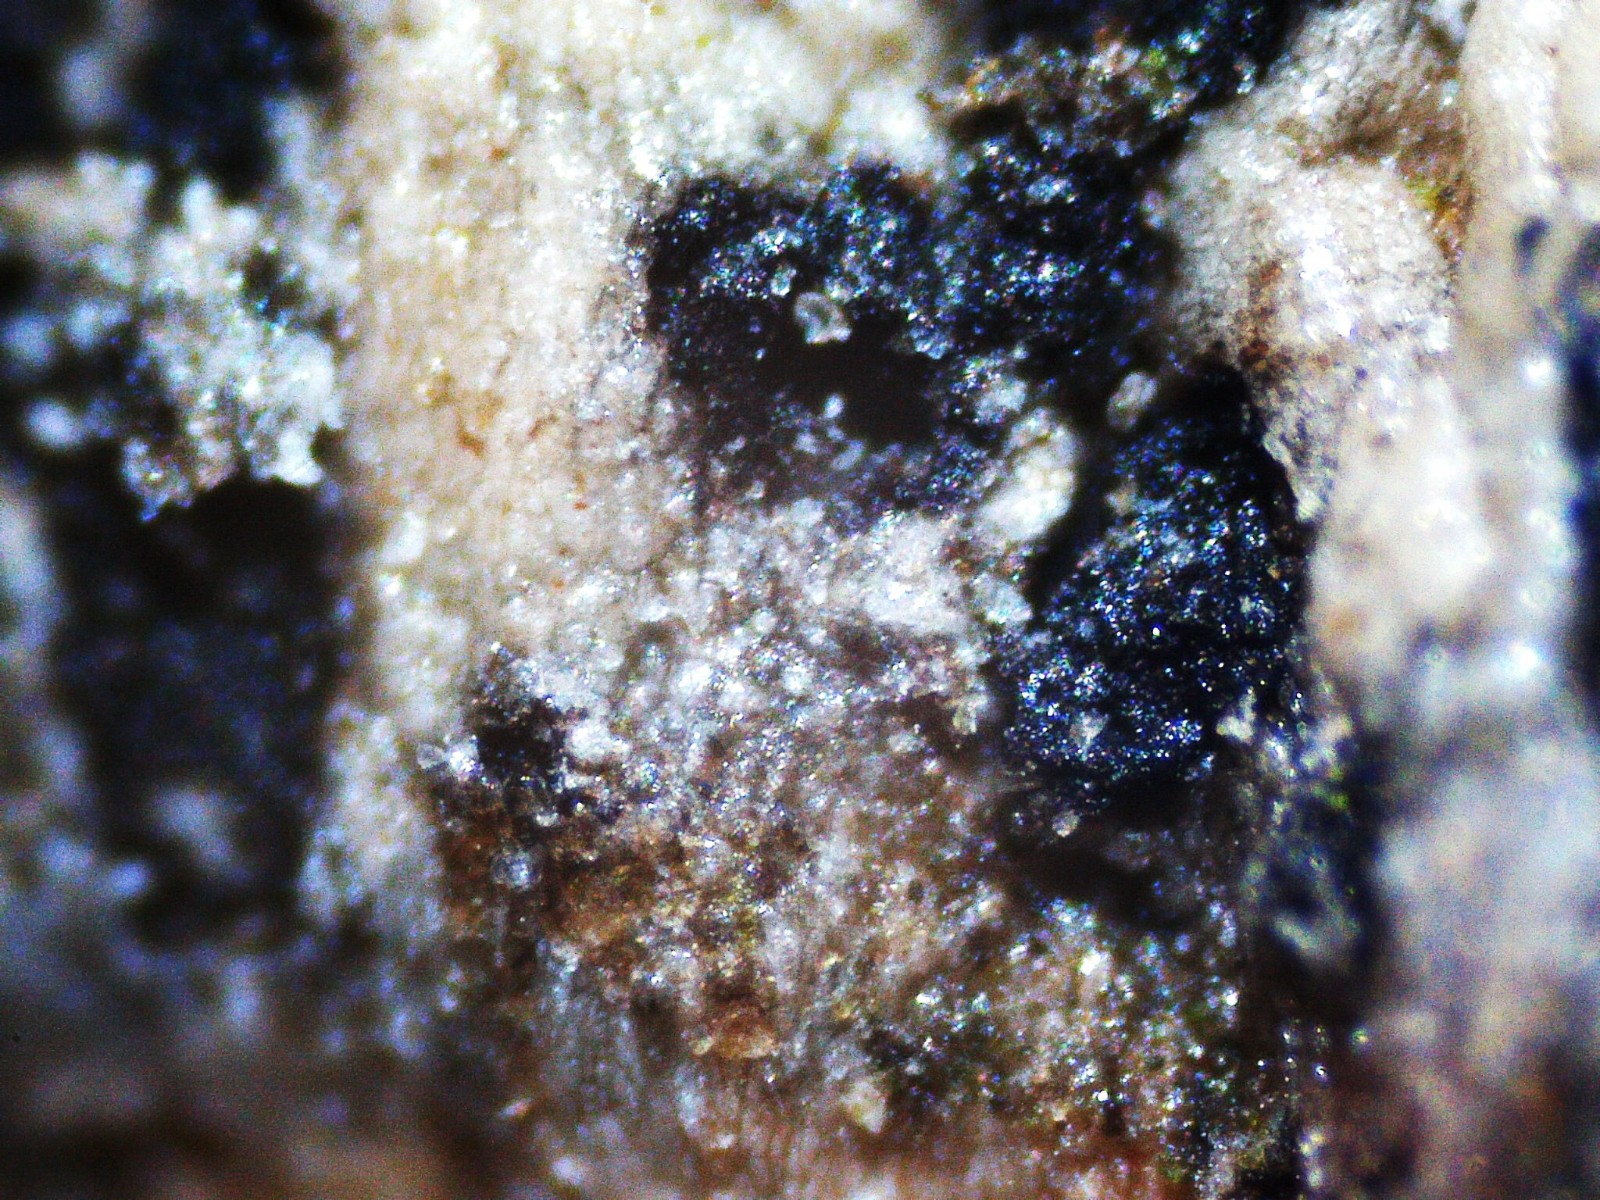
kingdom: Fungi
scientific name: Fungi
